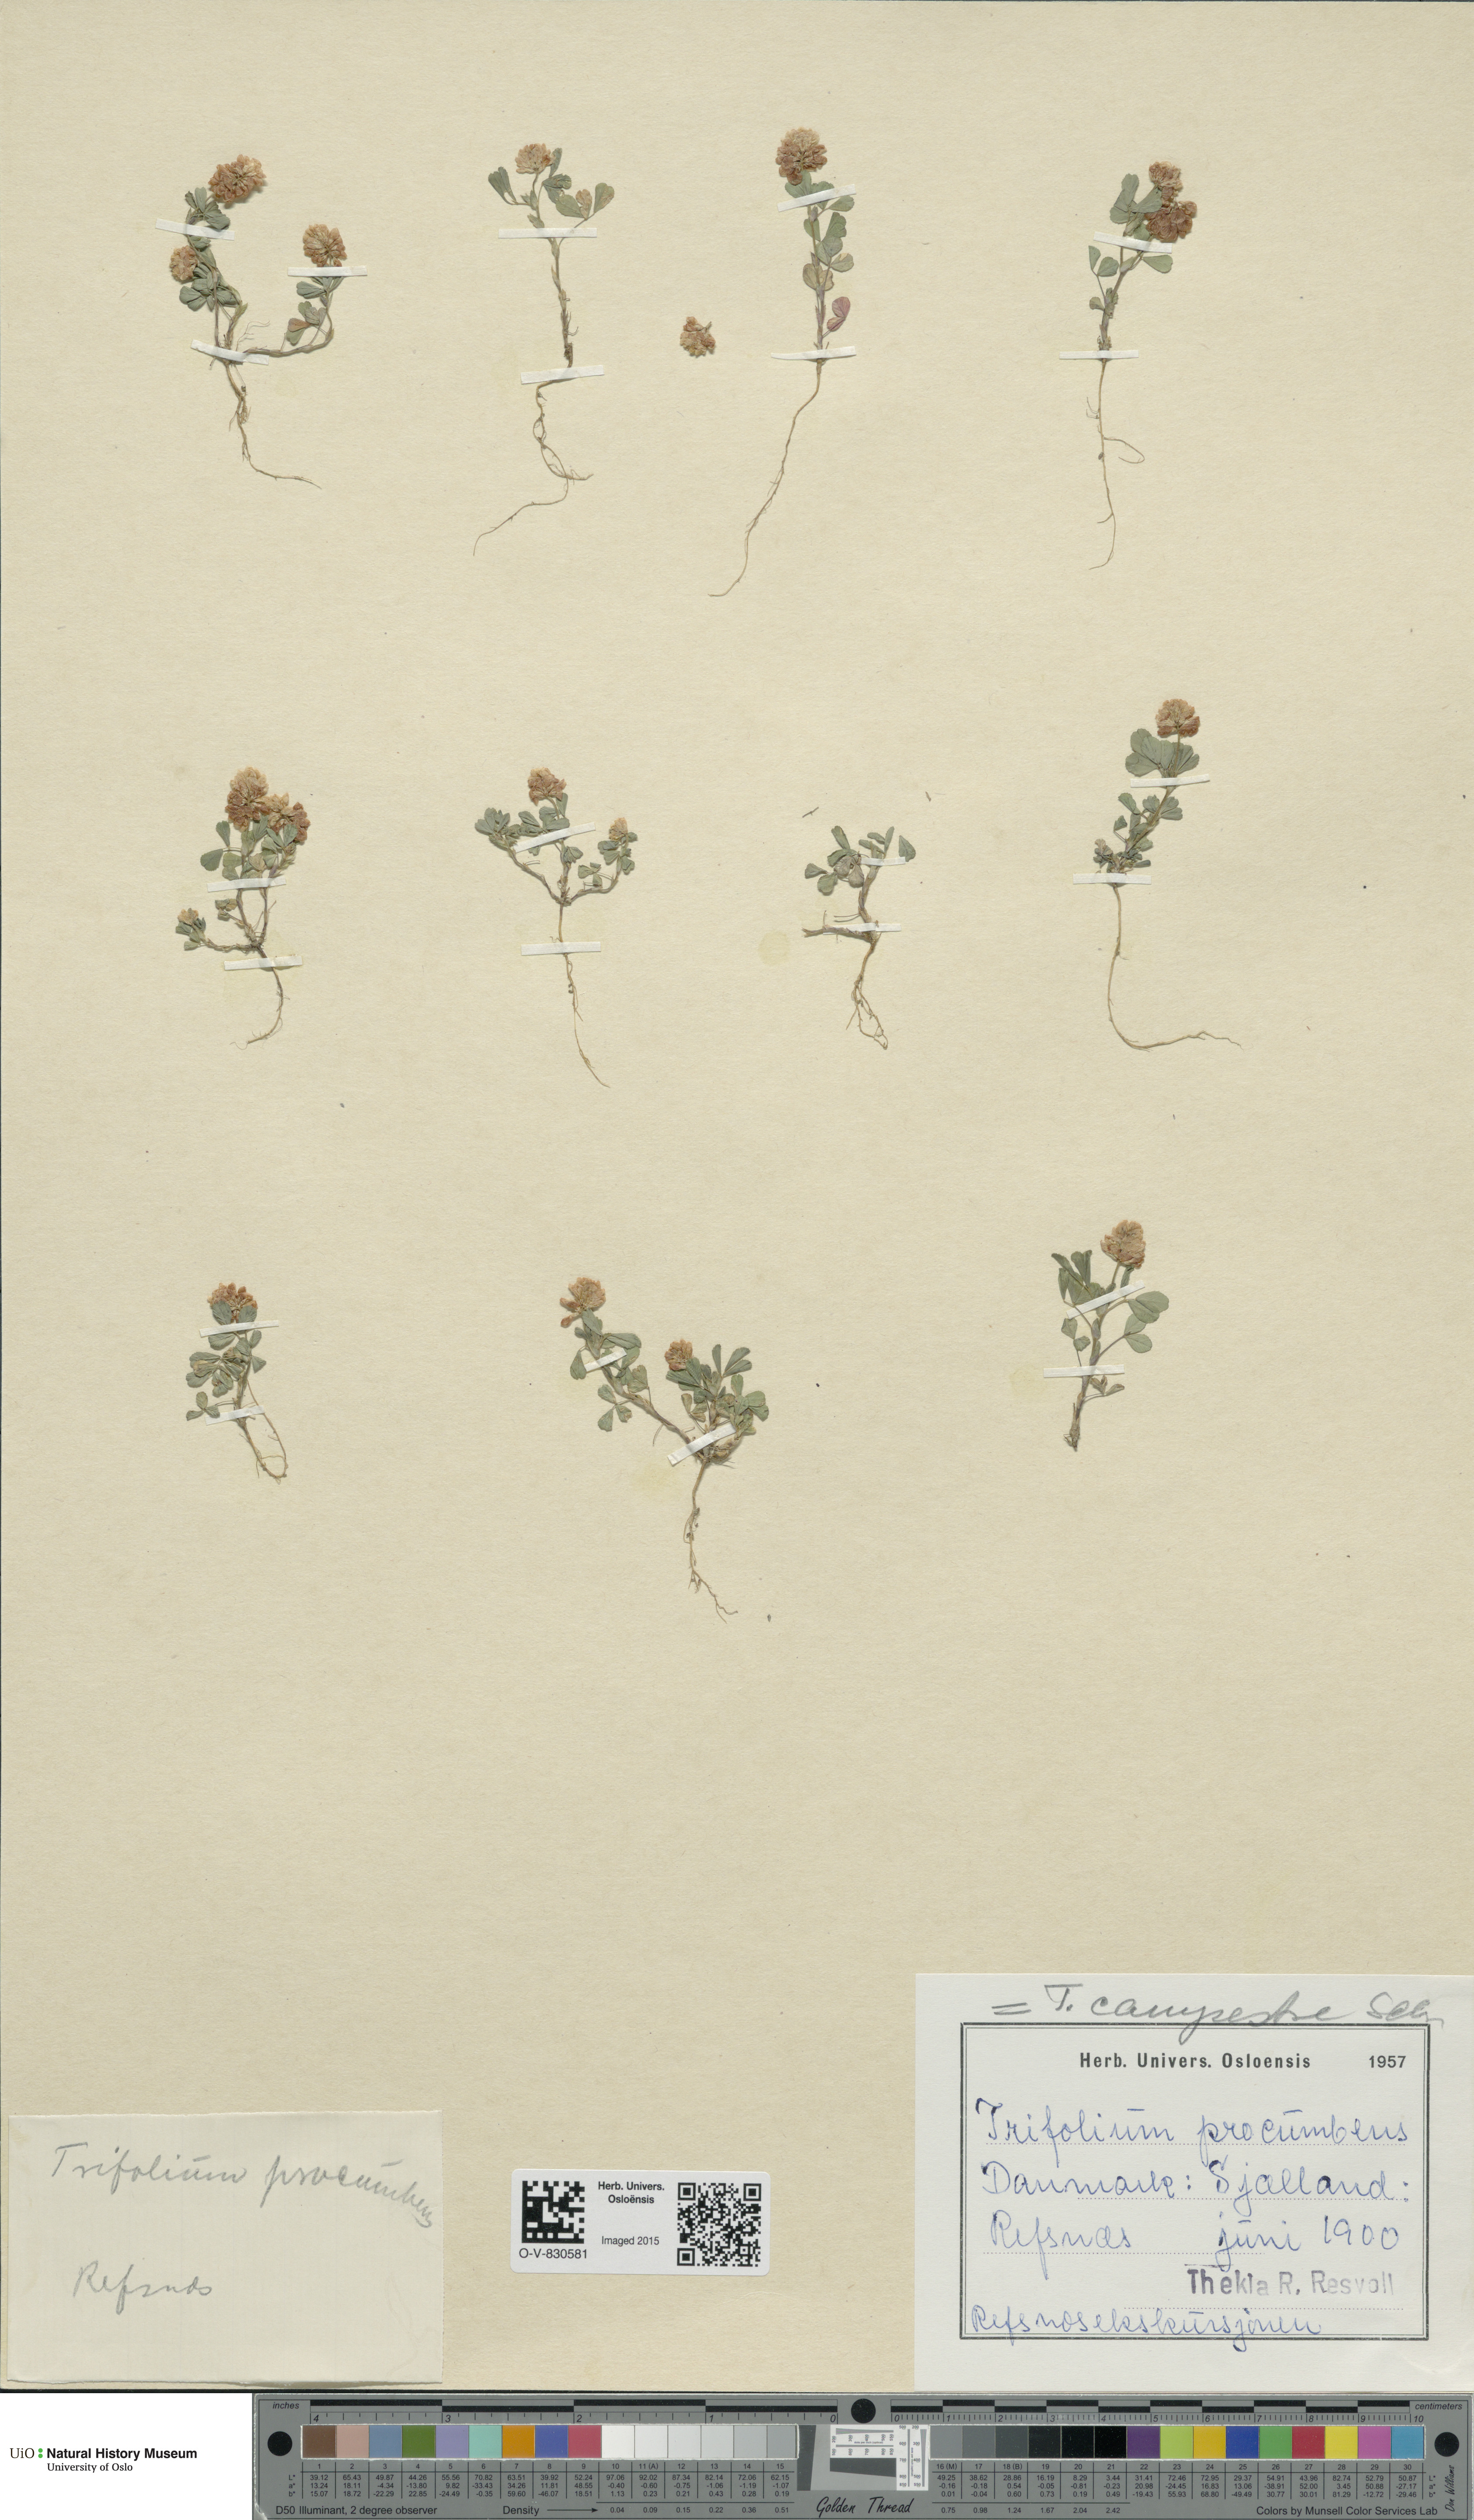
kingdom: Plantae
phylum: Tracheophyta
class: Magnoliopsida
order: Fabales
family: Fabaceae
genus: Trifolium
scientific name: Trifolium campestre
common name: Field clover
